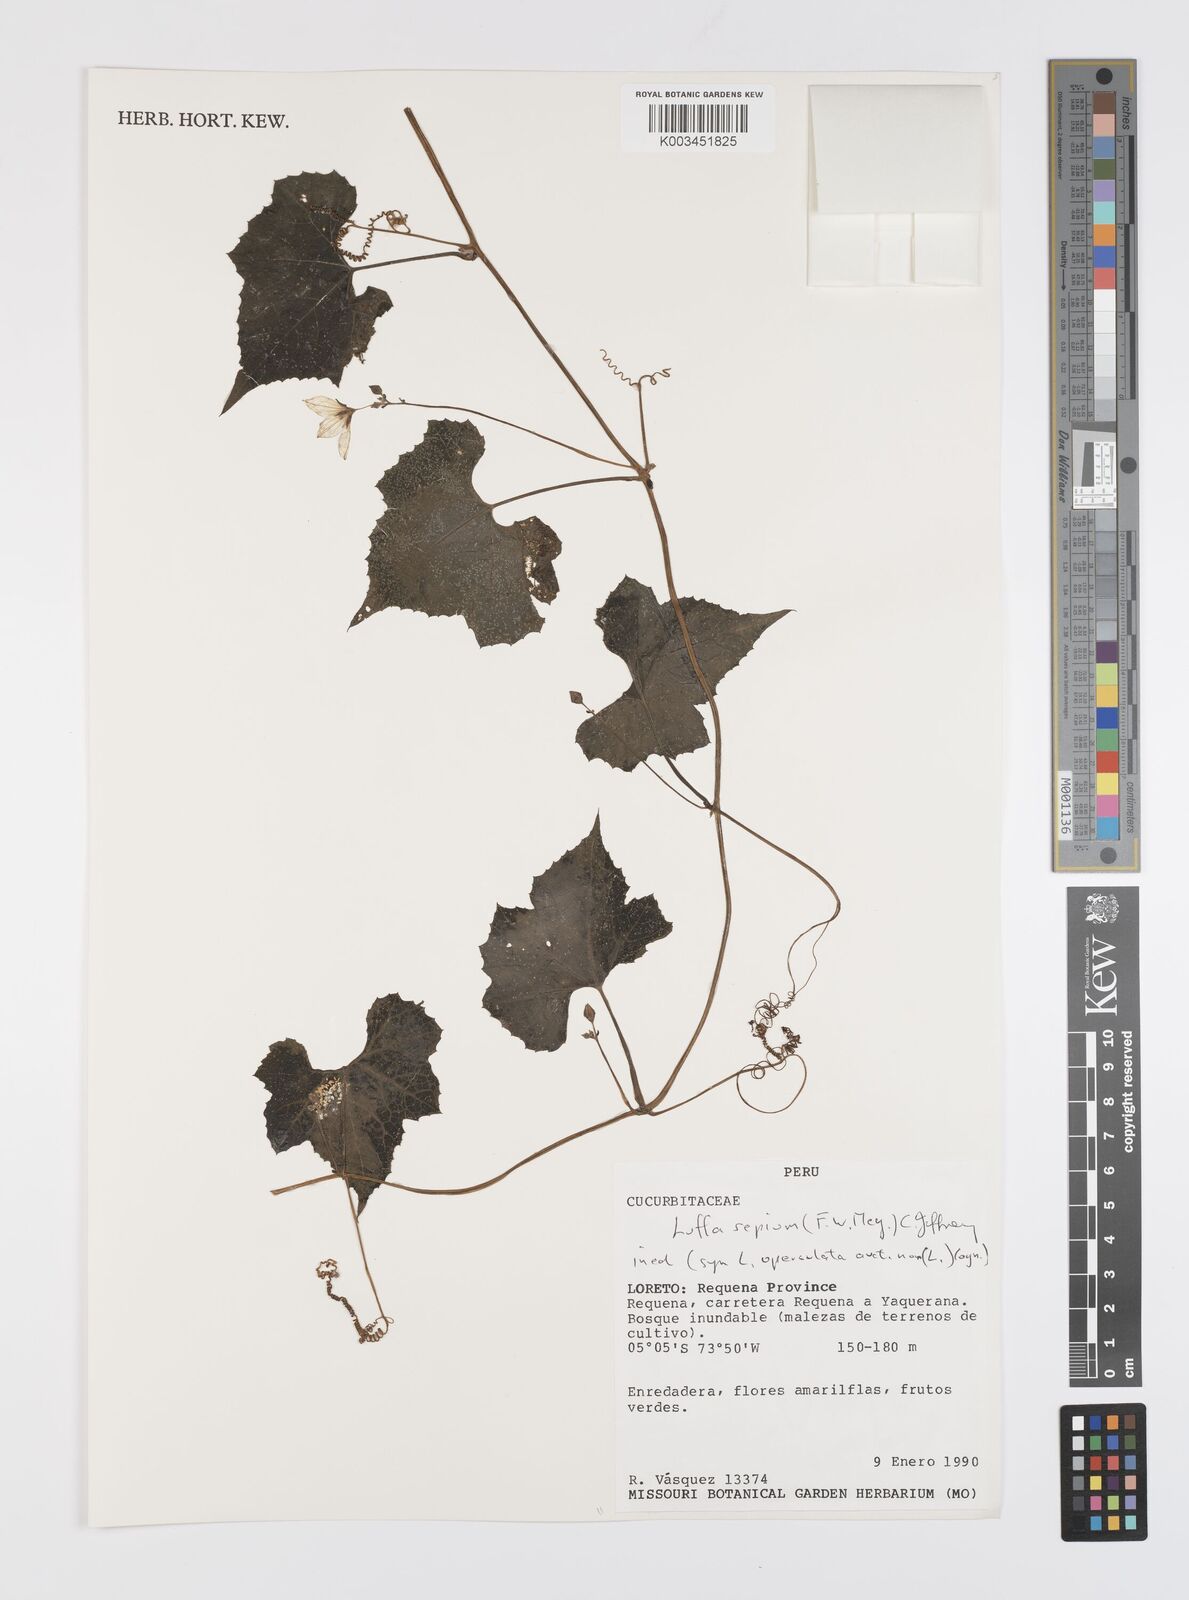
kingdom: Plantae
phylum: Tracheophyta
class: Magnoliopsida
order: Cucurbitales
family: Cucurbitaceae
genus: Luffa
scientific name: Luffa sepium
